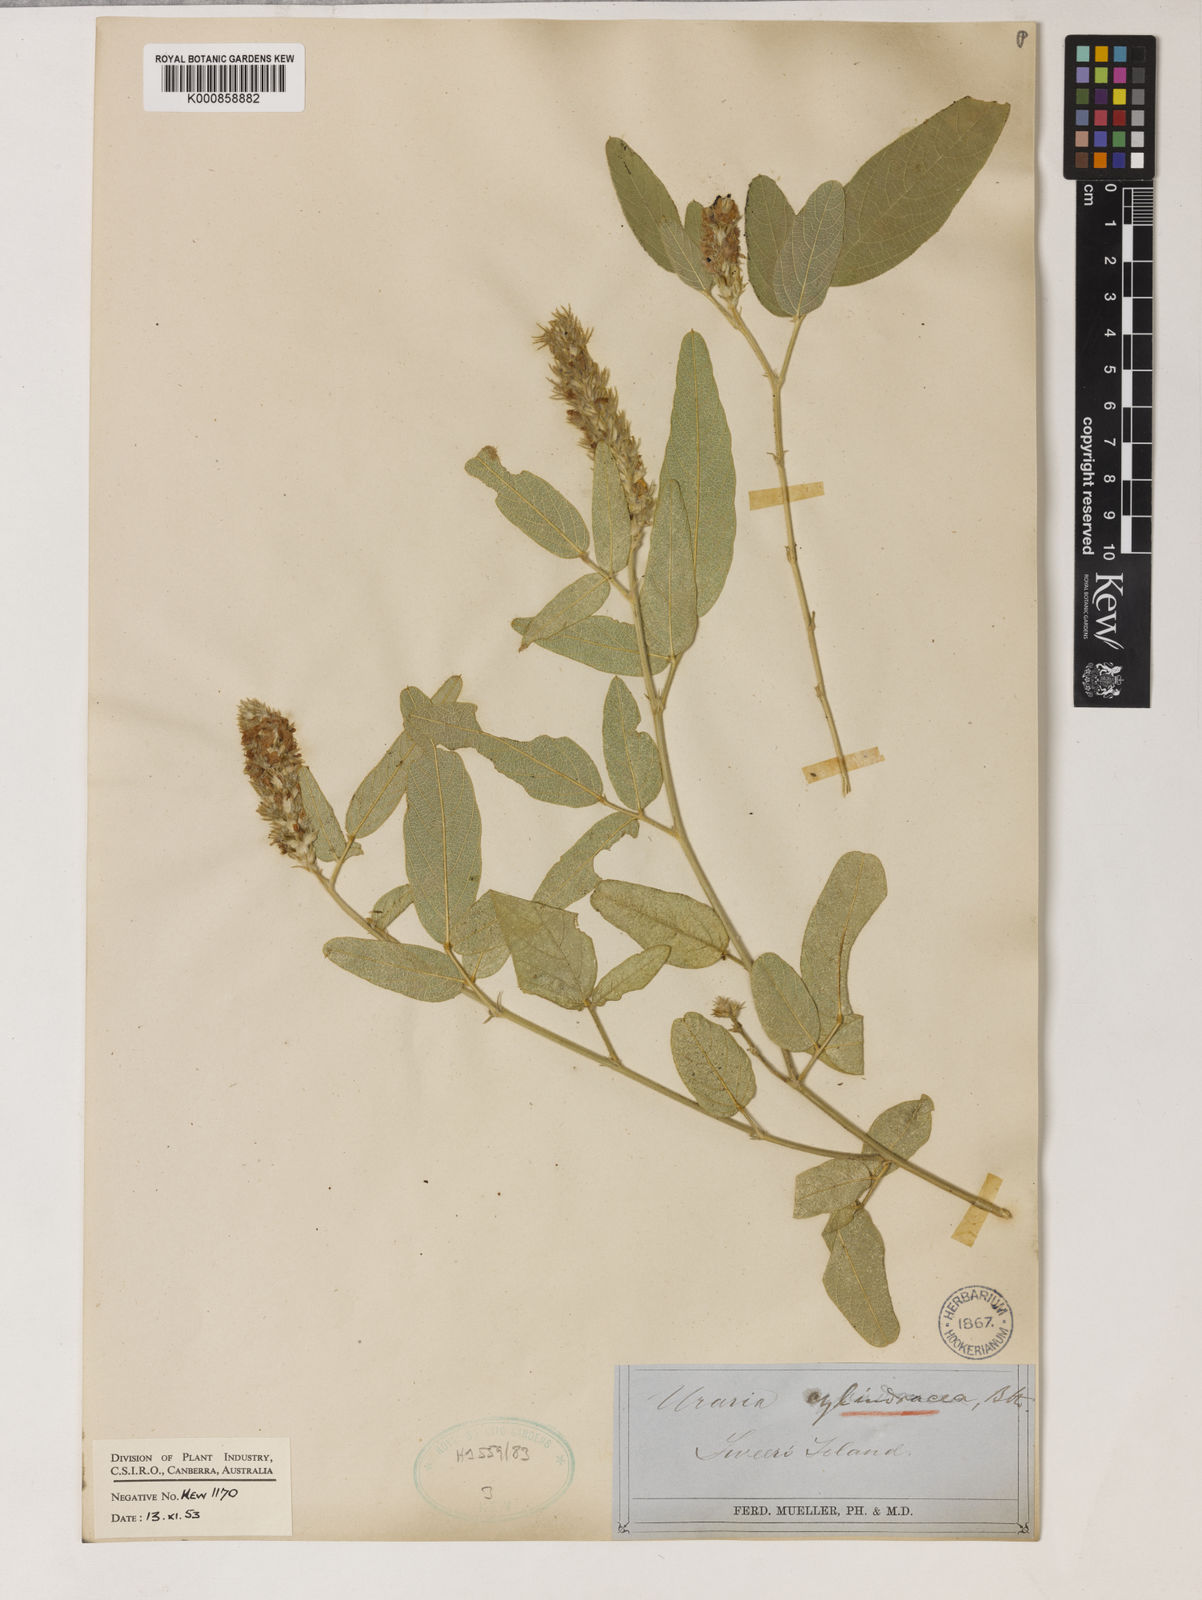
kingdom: Plantae
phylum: Tracheophyta
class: Magnoliopsida
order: Fabales
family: Fabaceae
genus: Uraria
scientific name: Uraria lagopodioides
